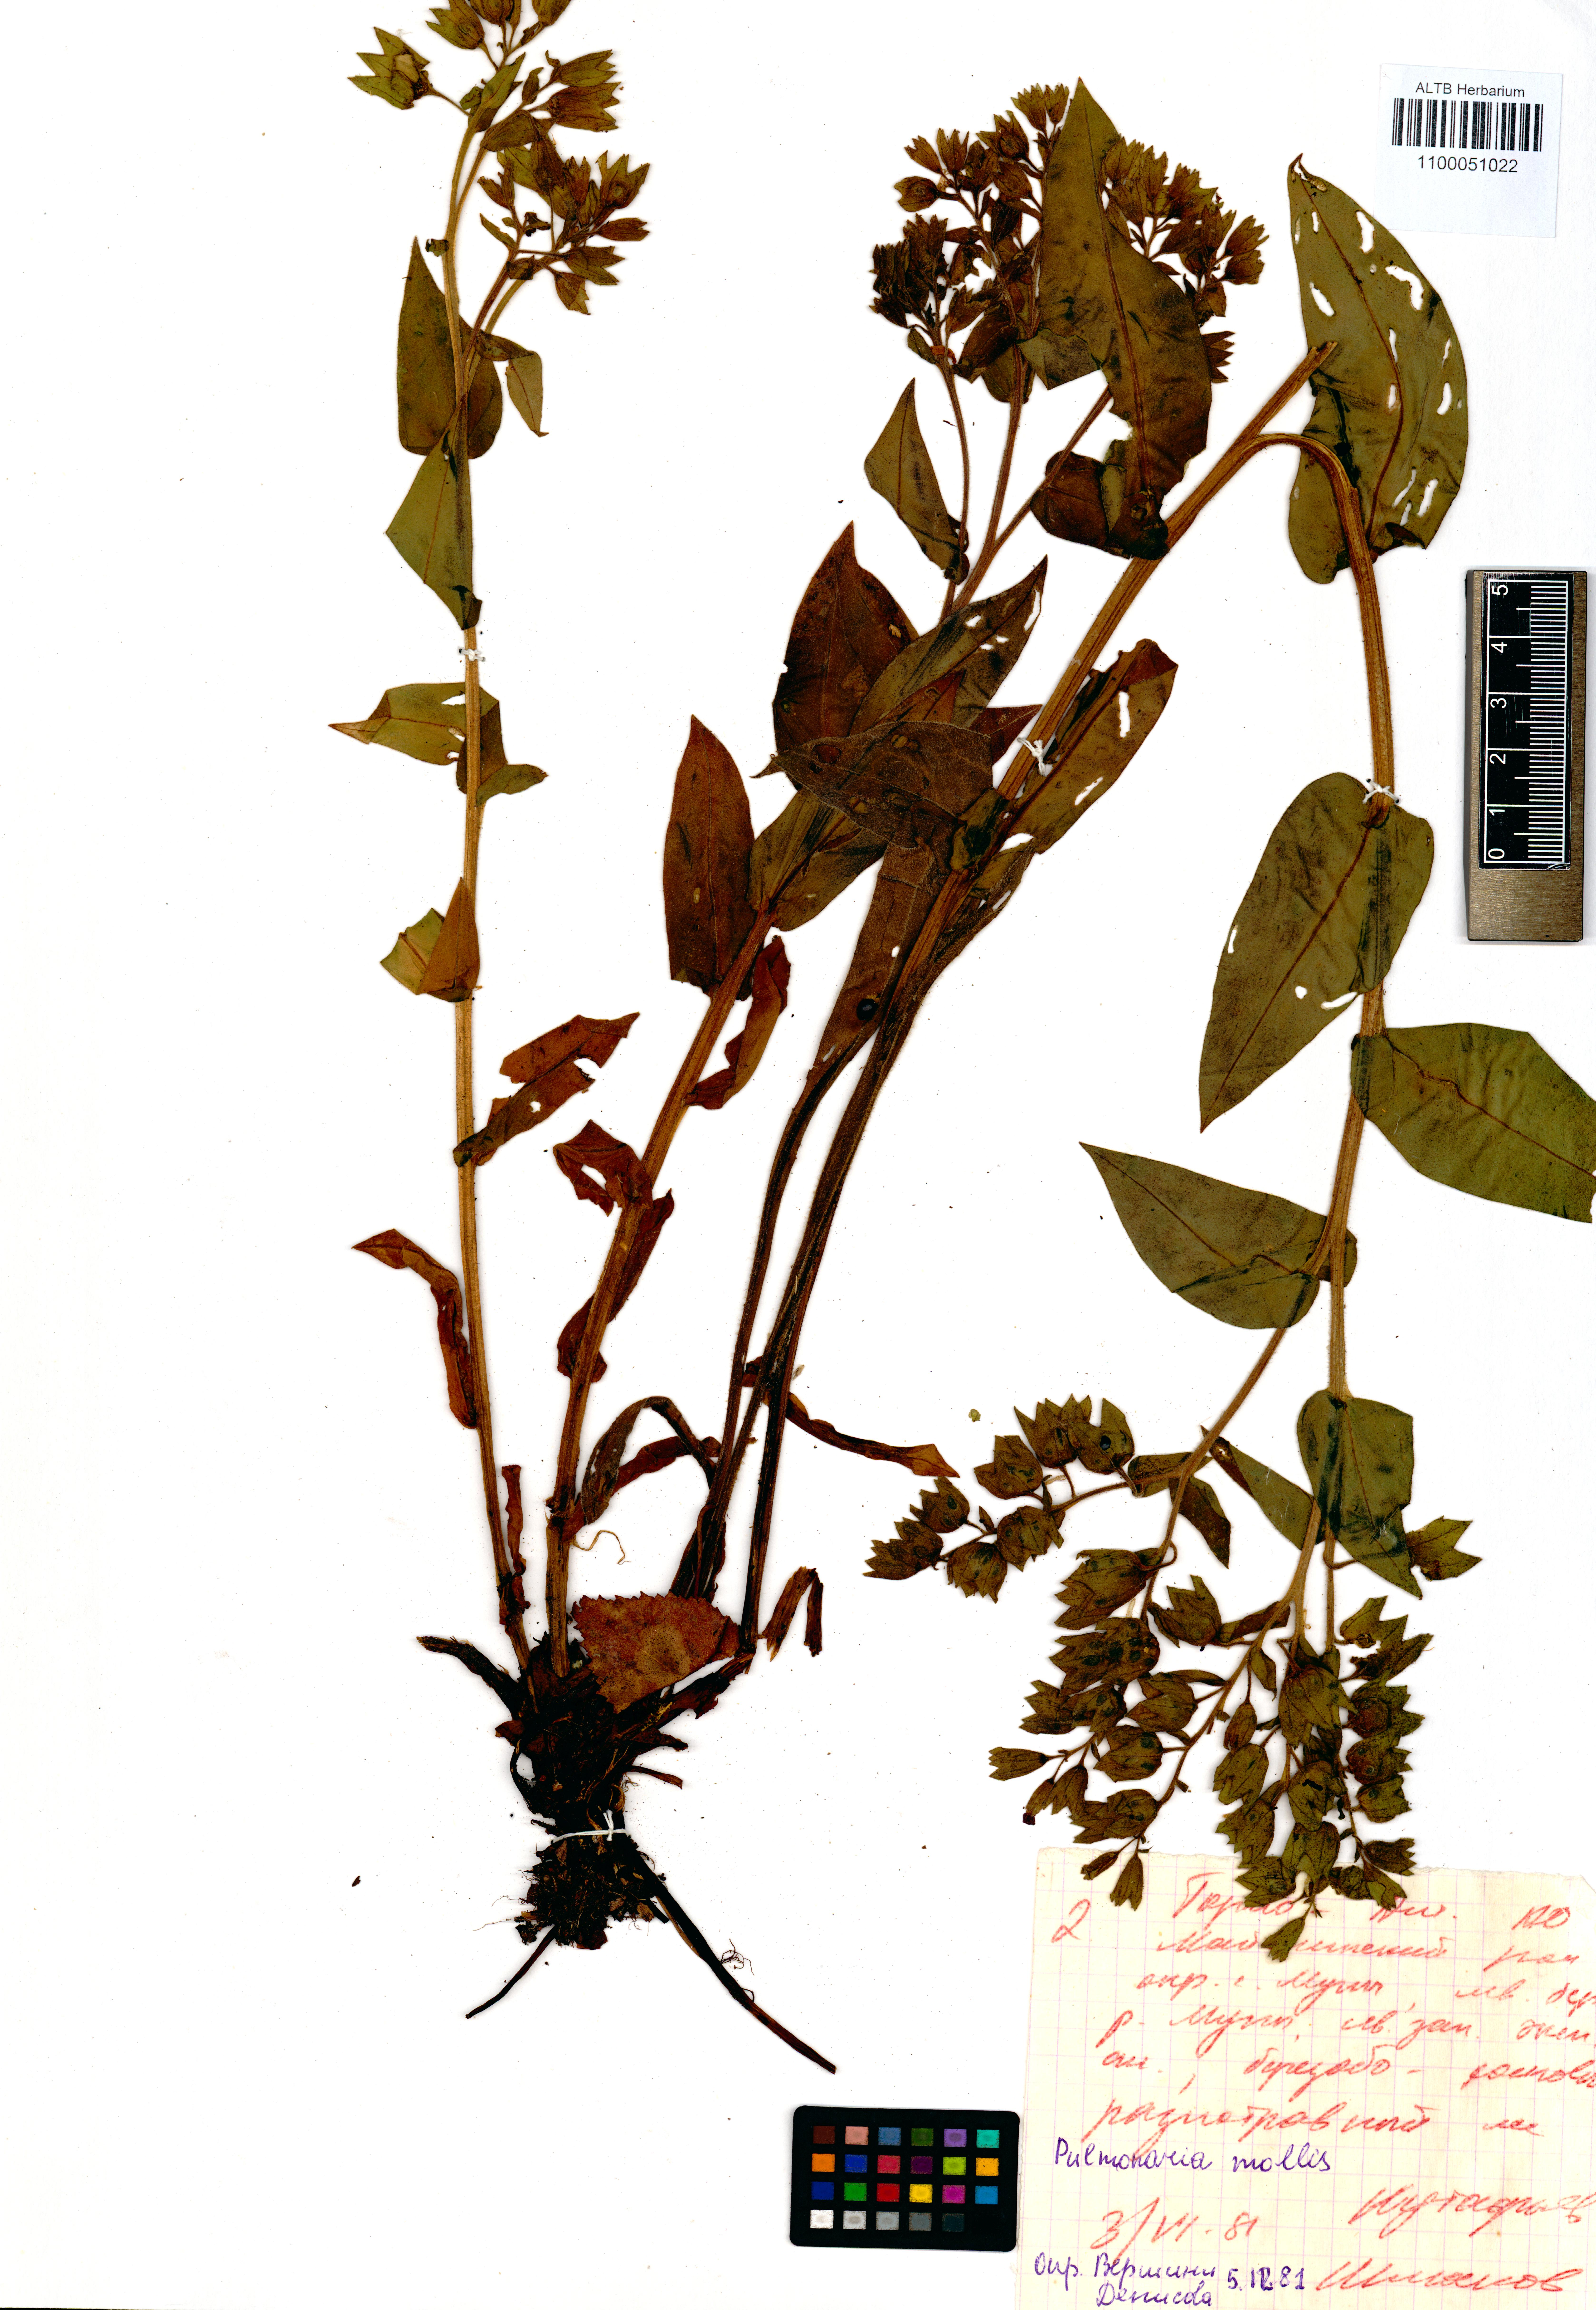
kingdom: Plantae
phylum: Tracheophyta
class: Magnoliopsida
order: Boraginales
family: Boraginaceae
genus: Pulmonaria
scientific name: Pulmonaria mollis
